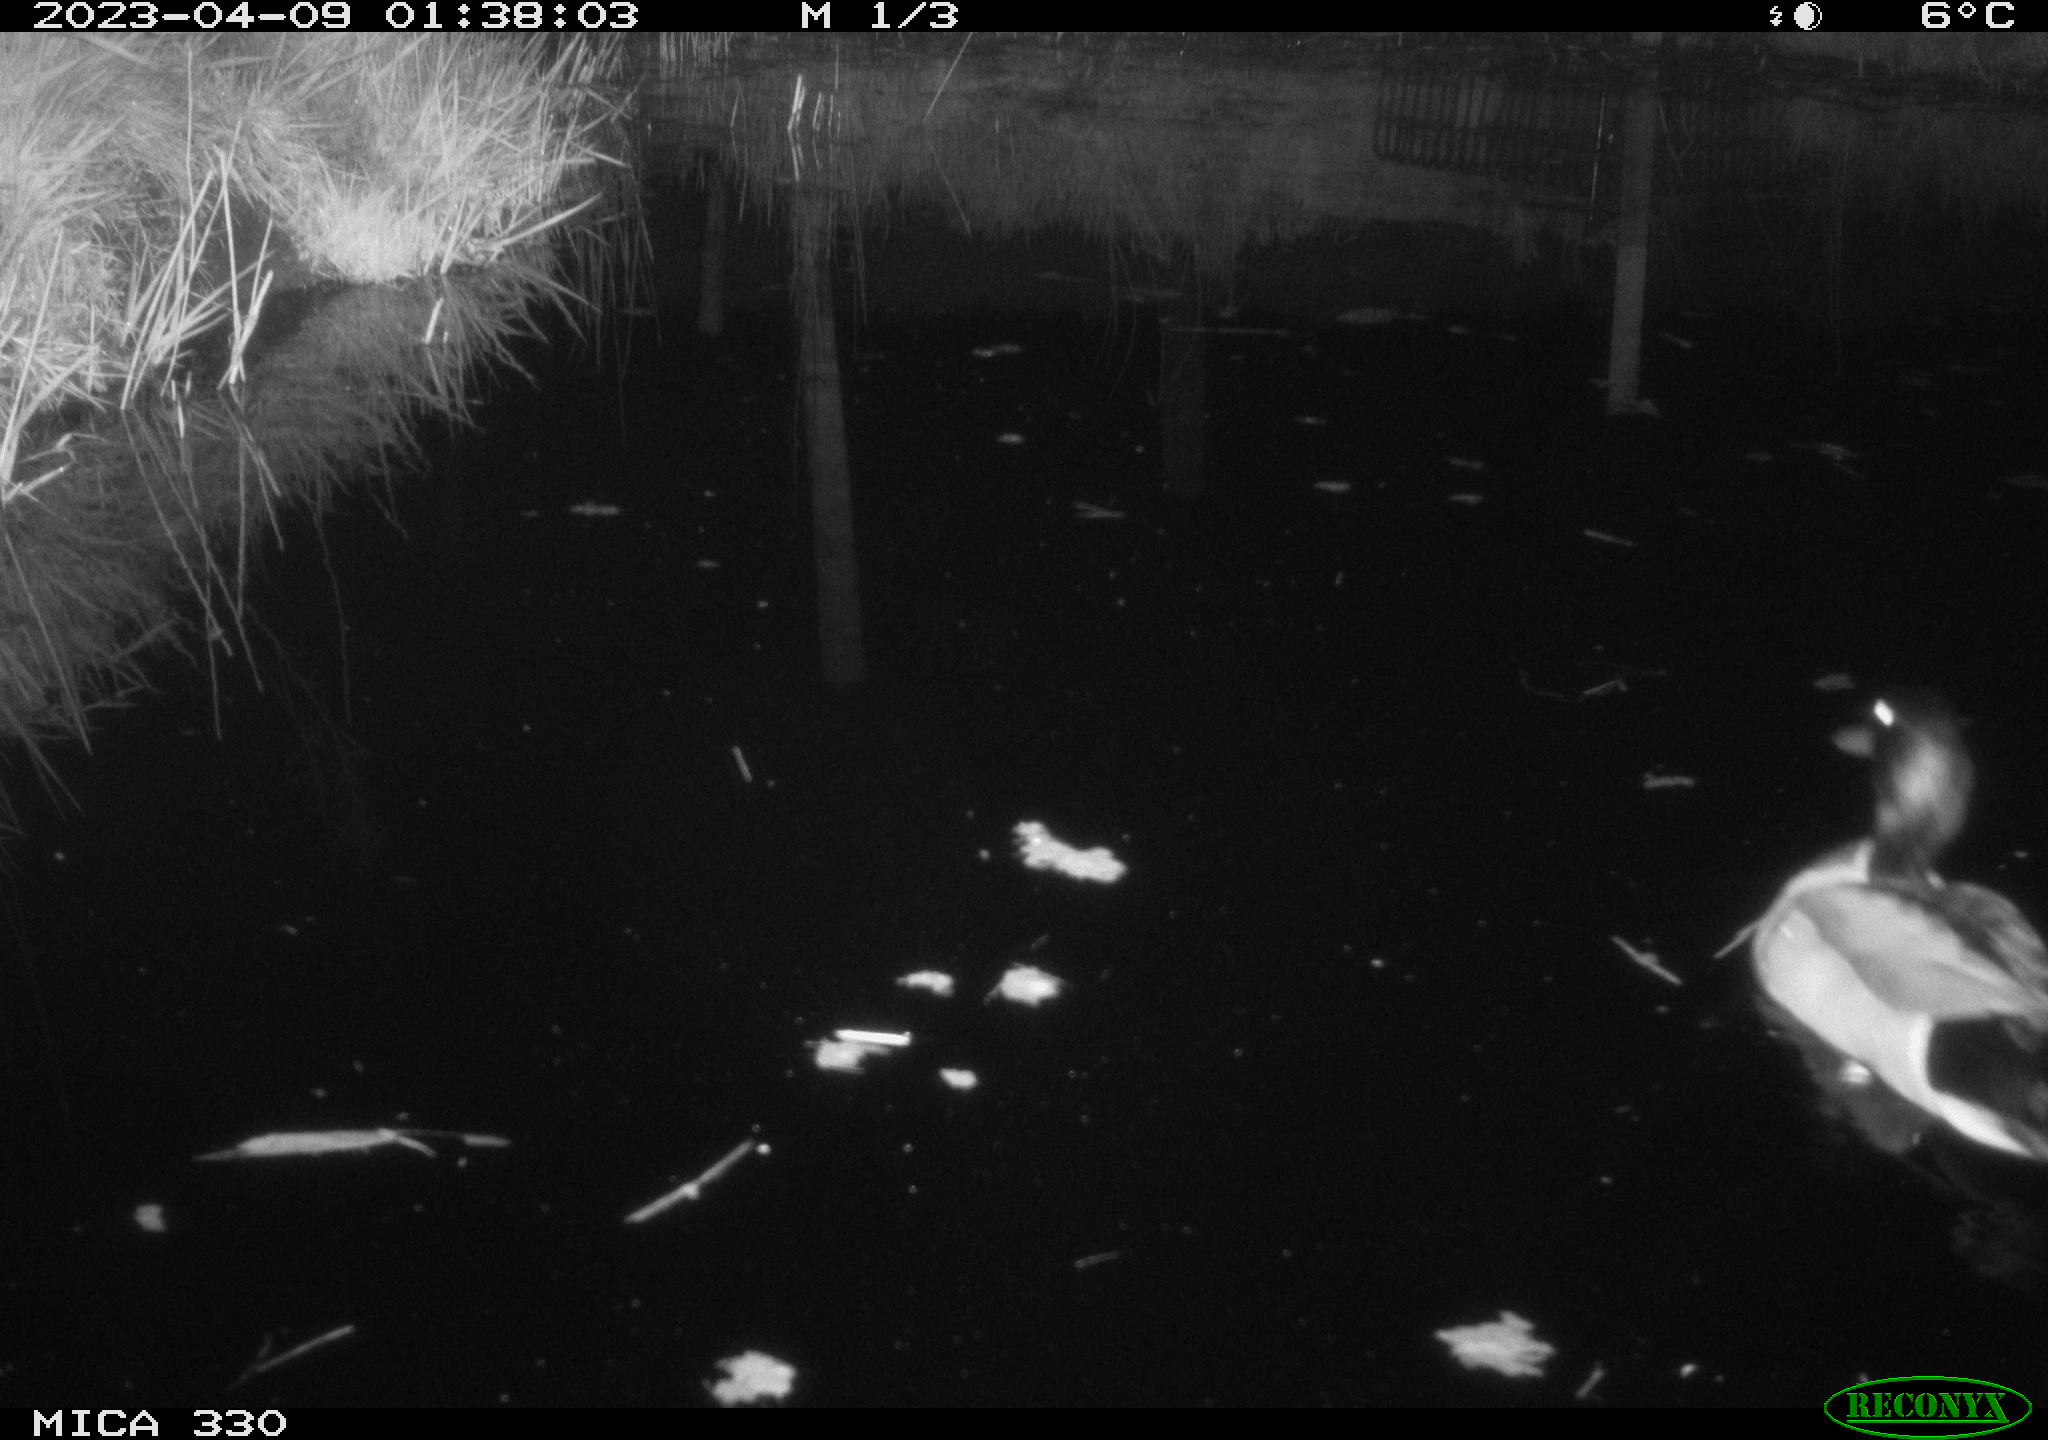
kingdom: Animalia
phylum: Chordata
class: Aves
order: Anseriformes
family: Anatidae
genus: Anas
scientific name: Anas
